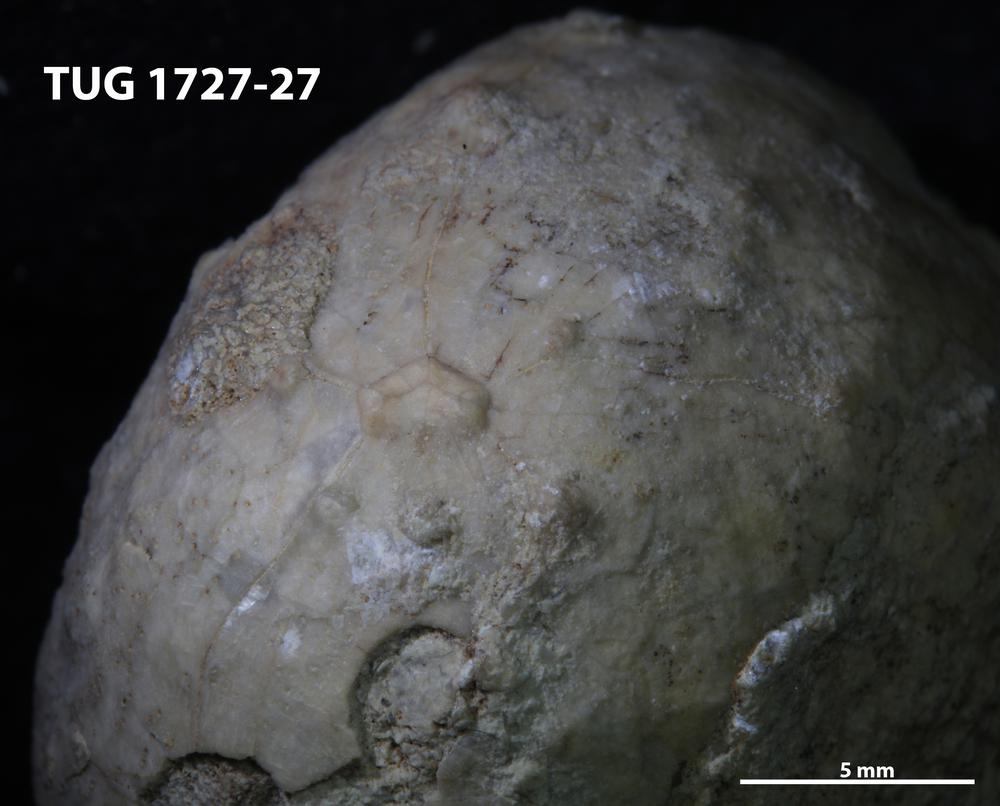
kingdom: Animalia
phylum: Echinodermata
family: Sphaeronitidae
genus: Eucystis
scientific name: Eucystis Glyptosphaerites leuchtenbergi
